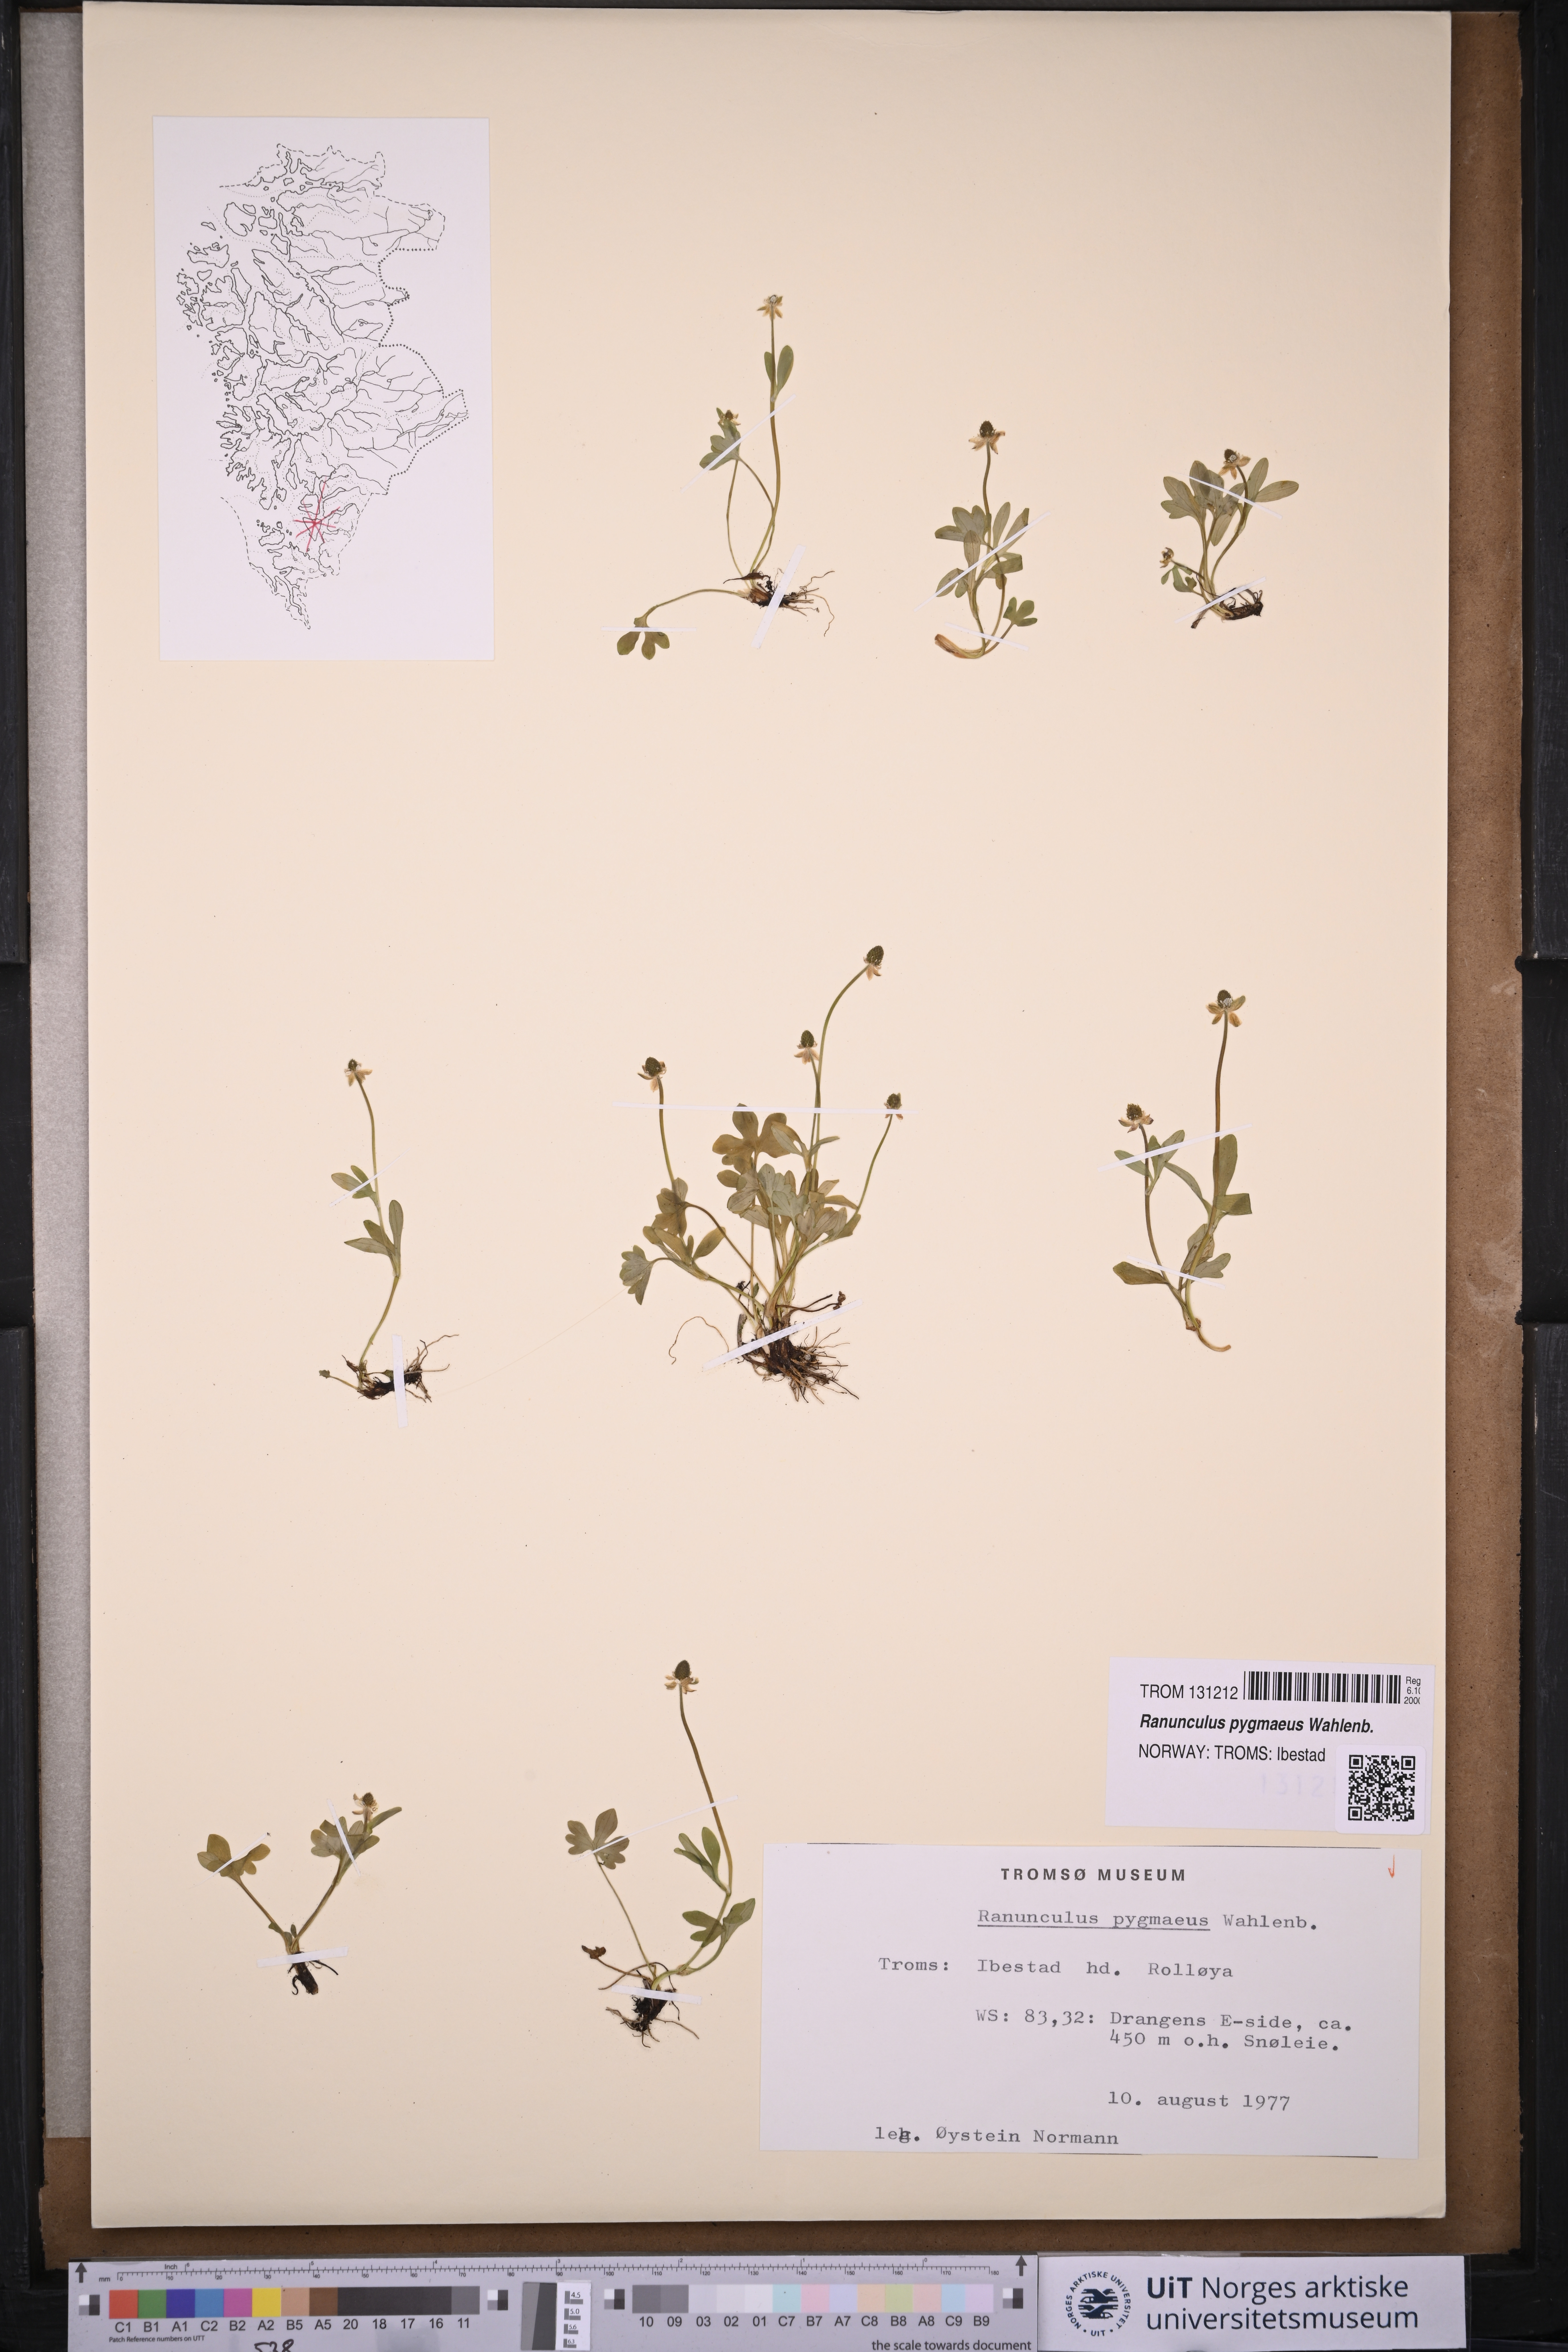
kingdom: Plantae
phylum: Tracheophyta
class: Magnoliopsida
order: Ranunculales
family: Ranunculaceae
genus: Ranunculus
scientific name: Ranunculus pygmaeus
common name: Dwarf buttercup
